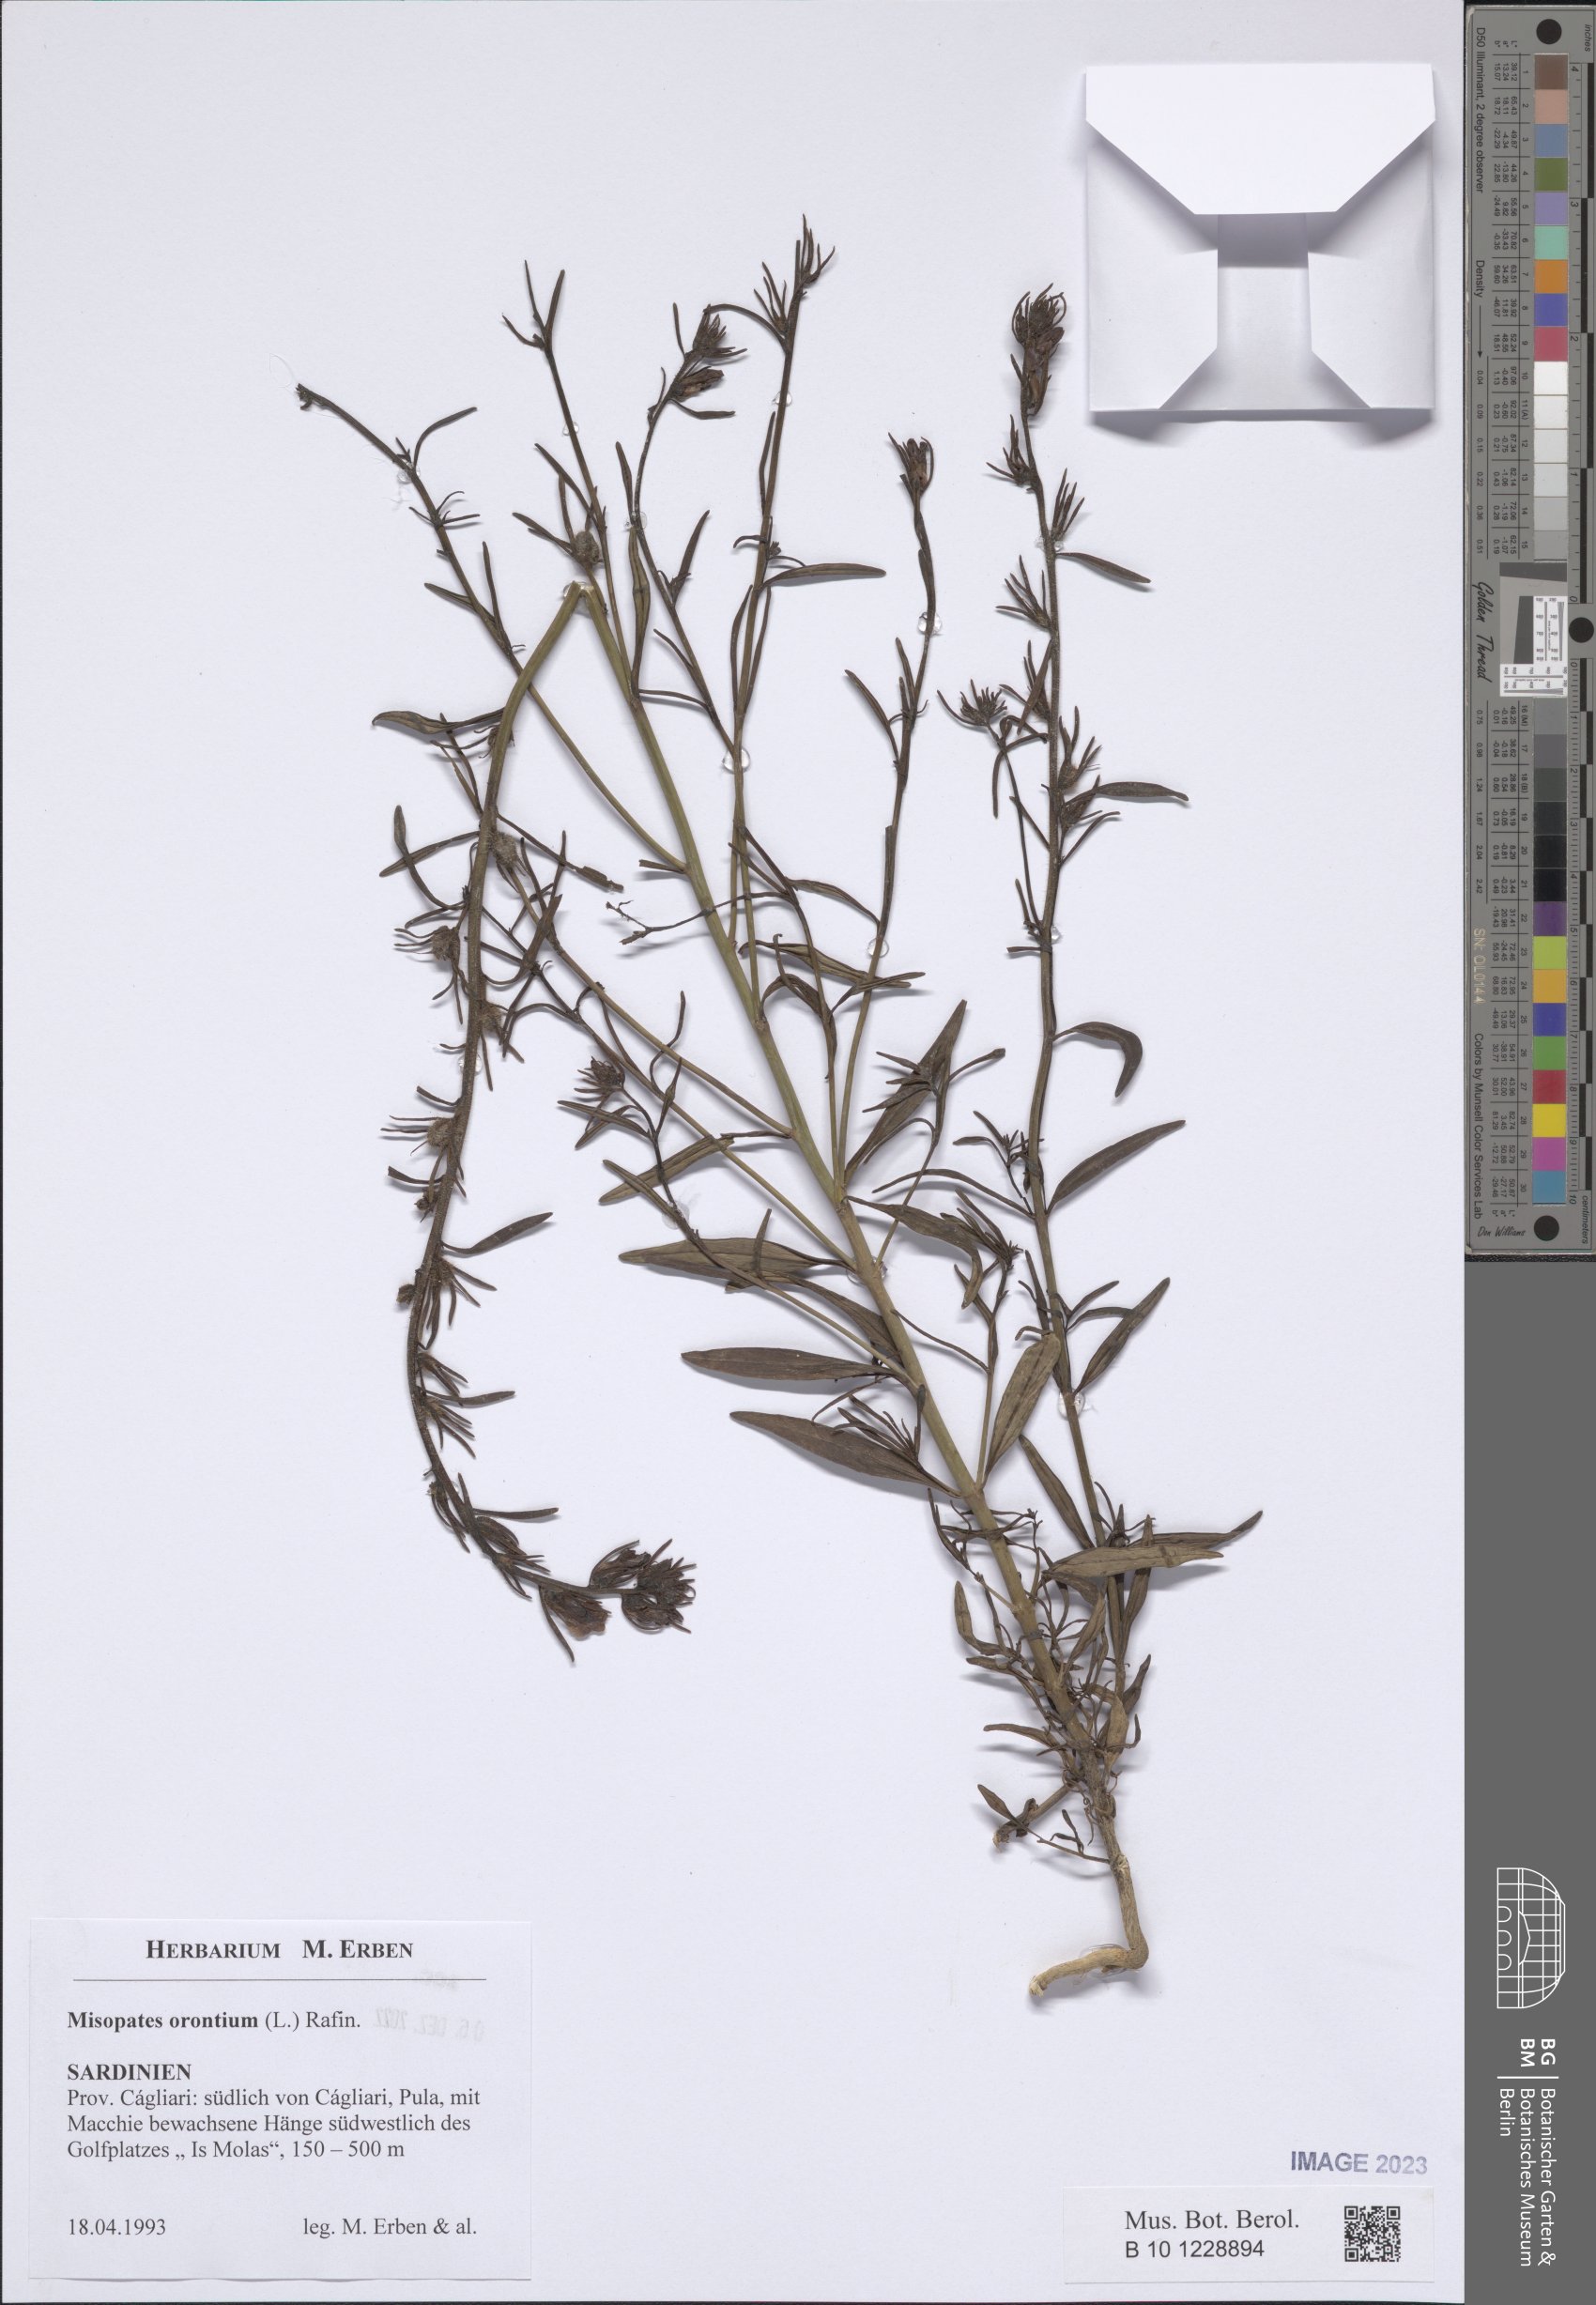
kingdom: Plantae
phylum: Tracheophyta
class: Magnoliopsida
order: Lamiales
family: Plantaginaceae
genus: Misopates
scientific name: Misopates orontium
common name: Weasel's-snout
